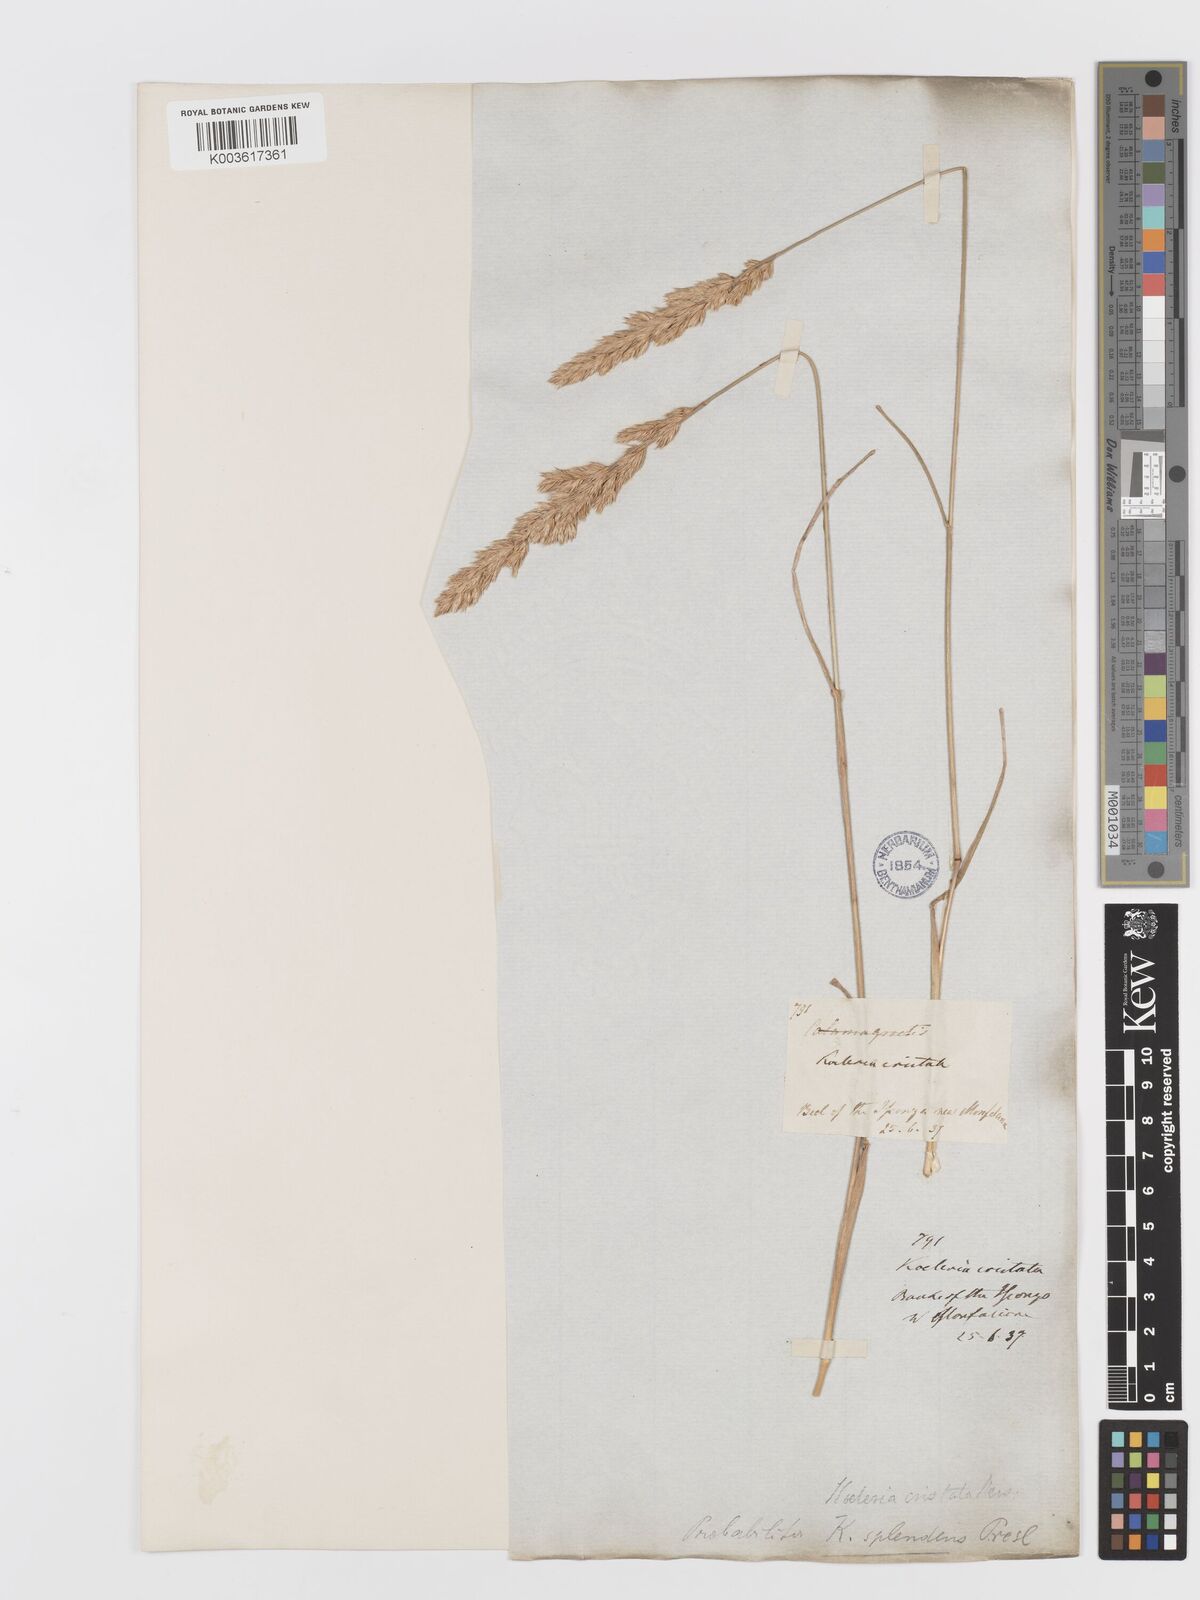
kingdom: Plantae
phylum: Tracheophyta
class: Liliopsida
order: Poales
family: Poaceae
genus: Koeleria
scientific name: Koeleria splendens
